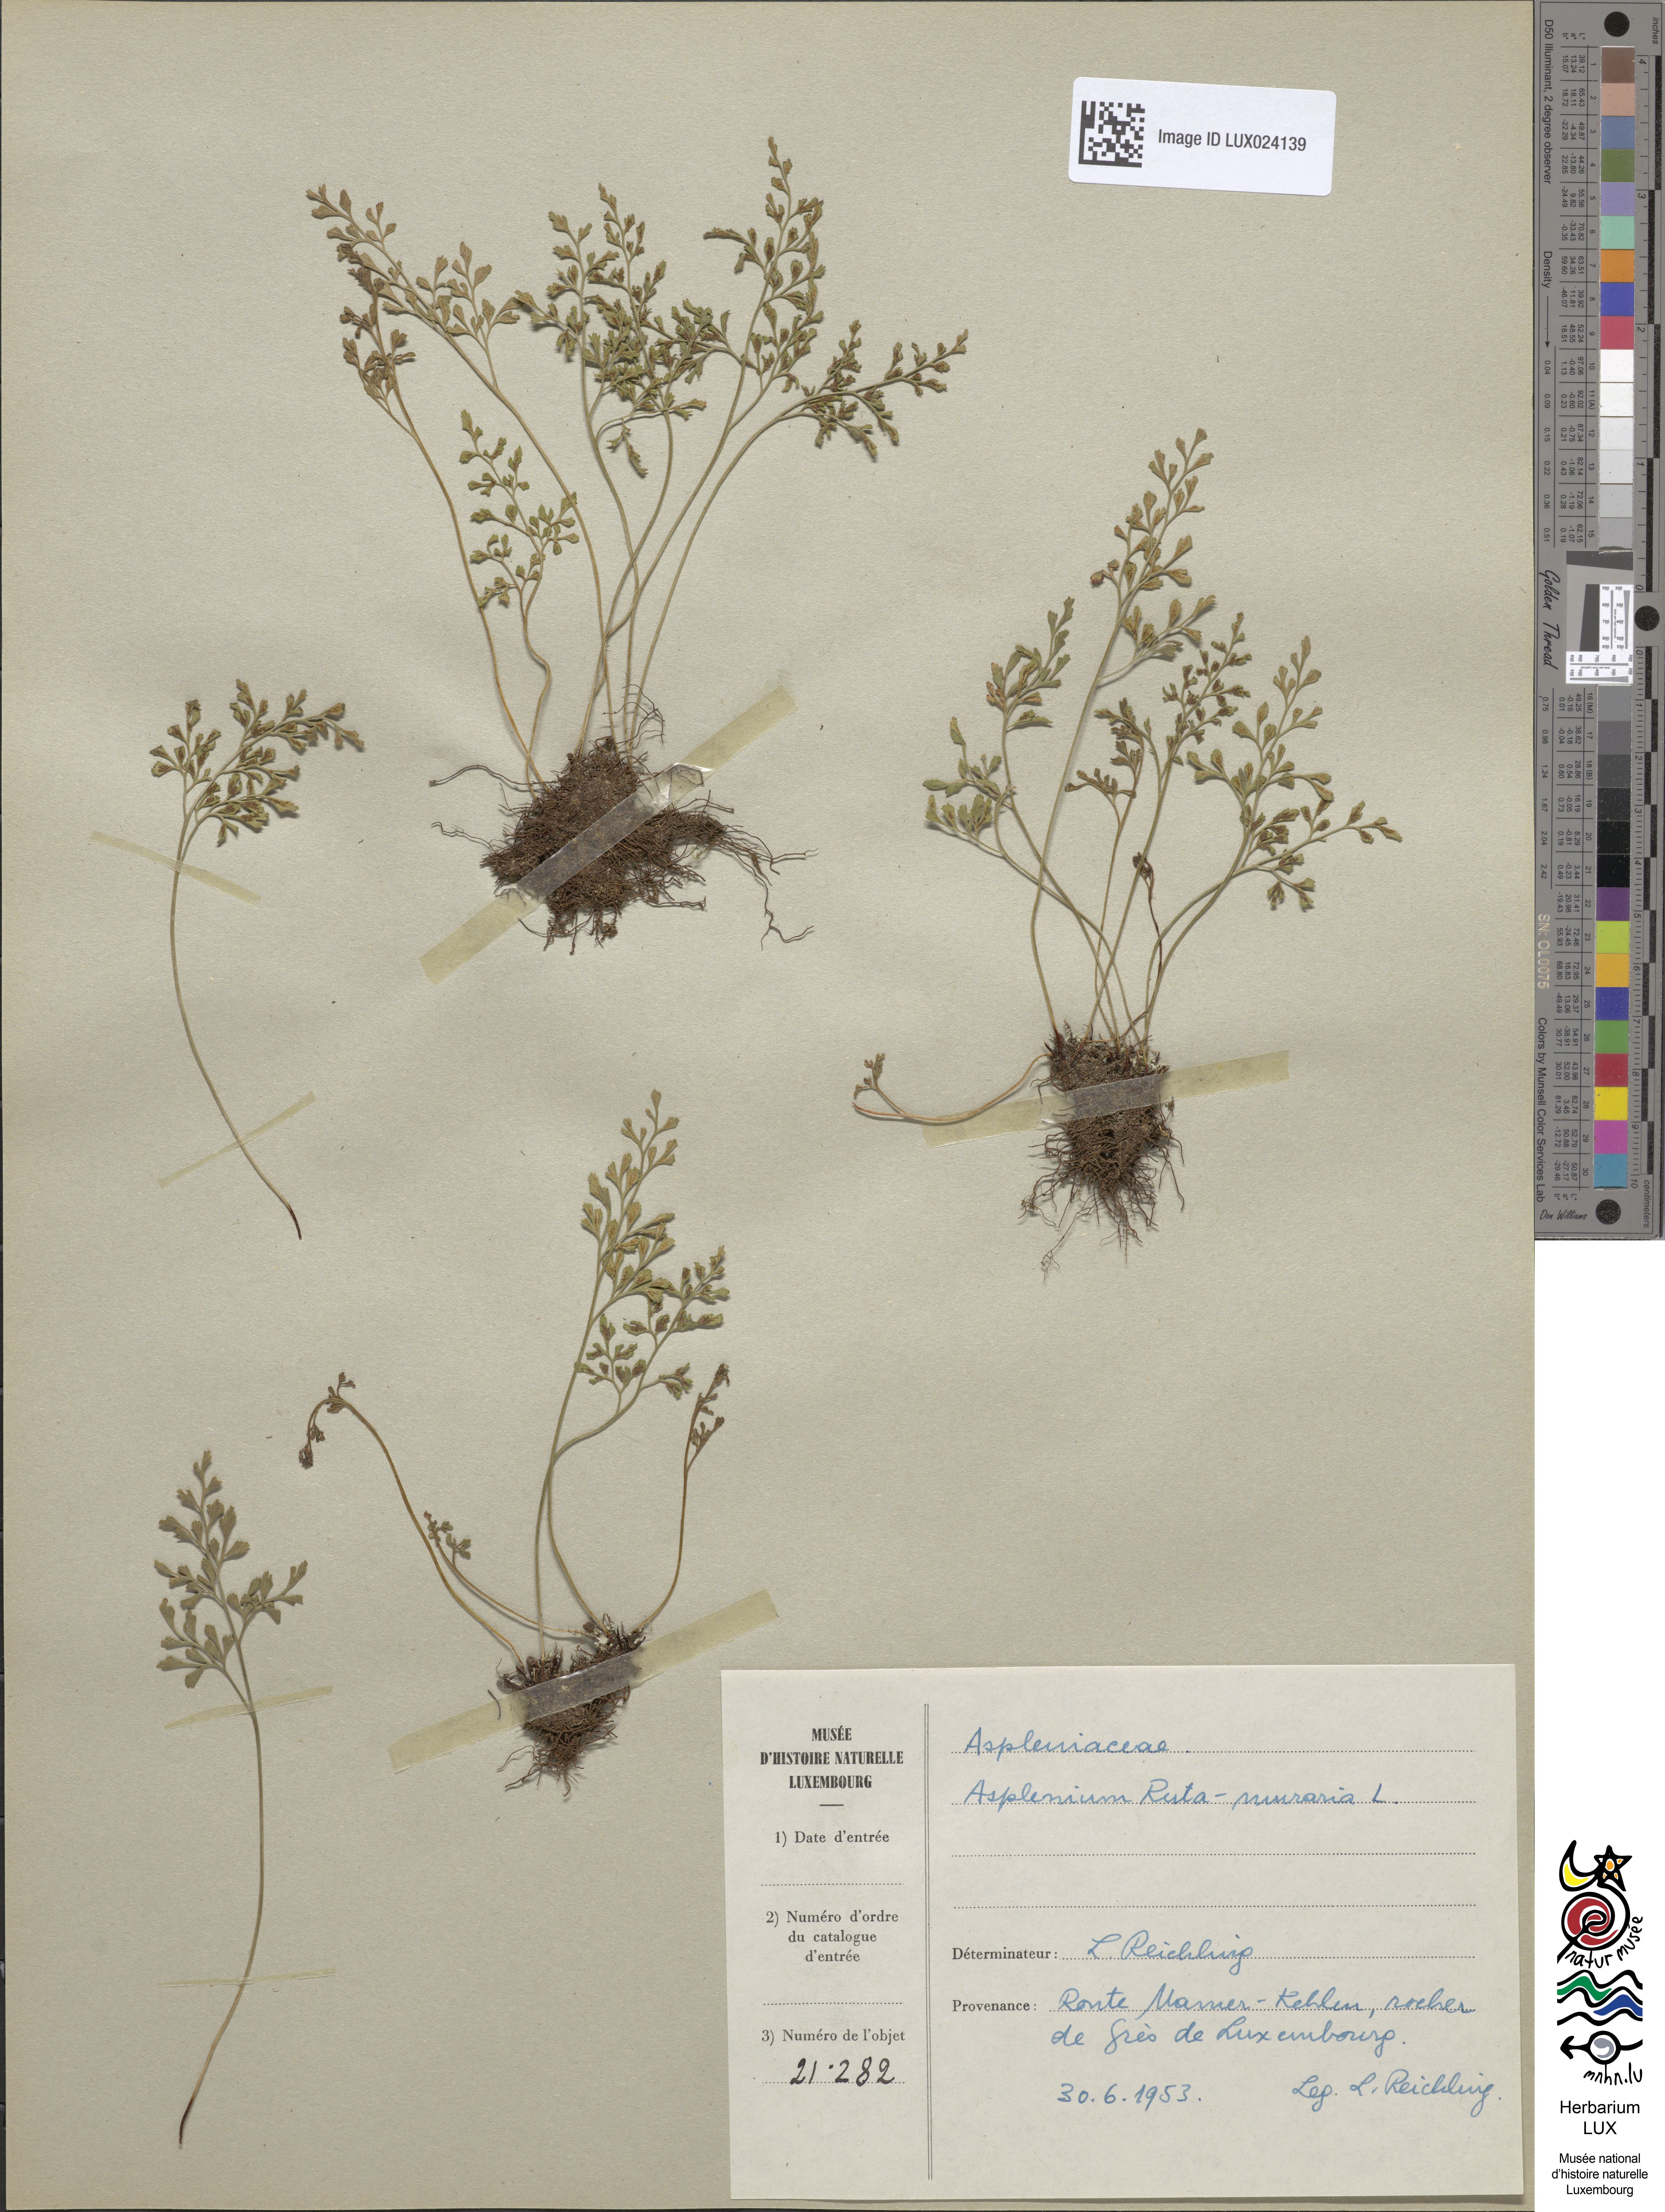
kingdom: Plantae
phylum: Tracheophyta
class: Polypodiopsida
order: Polypodiales
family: Aspleniaceae
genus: Asplenium
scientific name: Asplenium ruta-muraria
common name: Wall-rue
